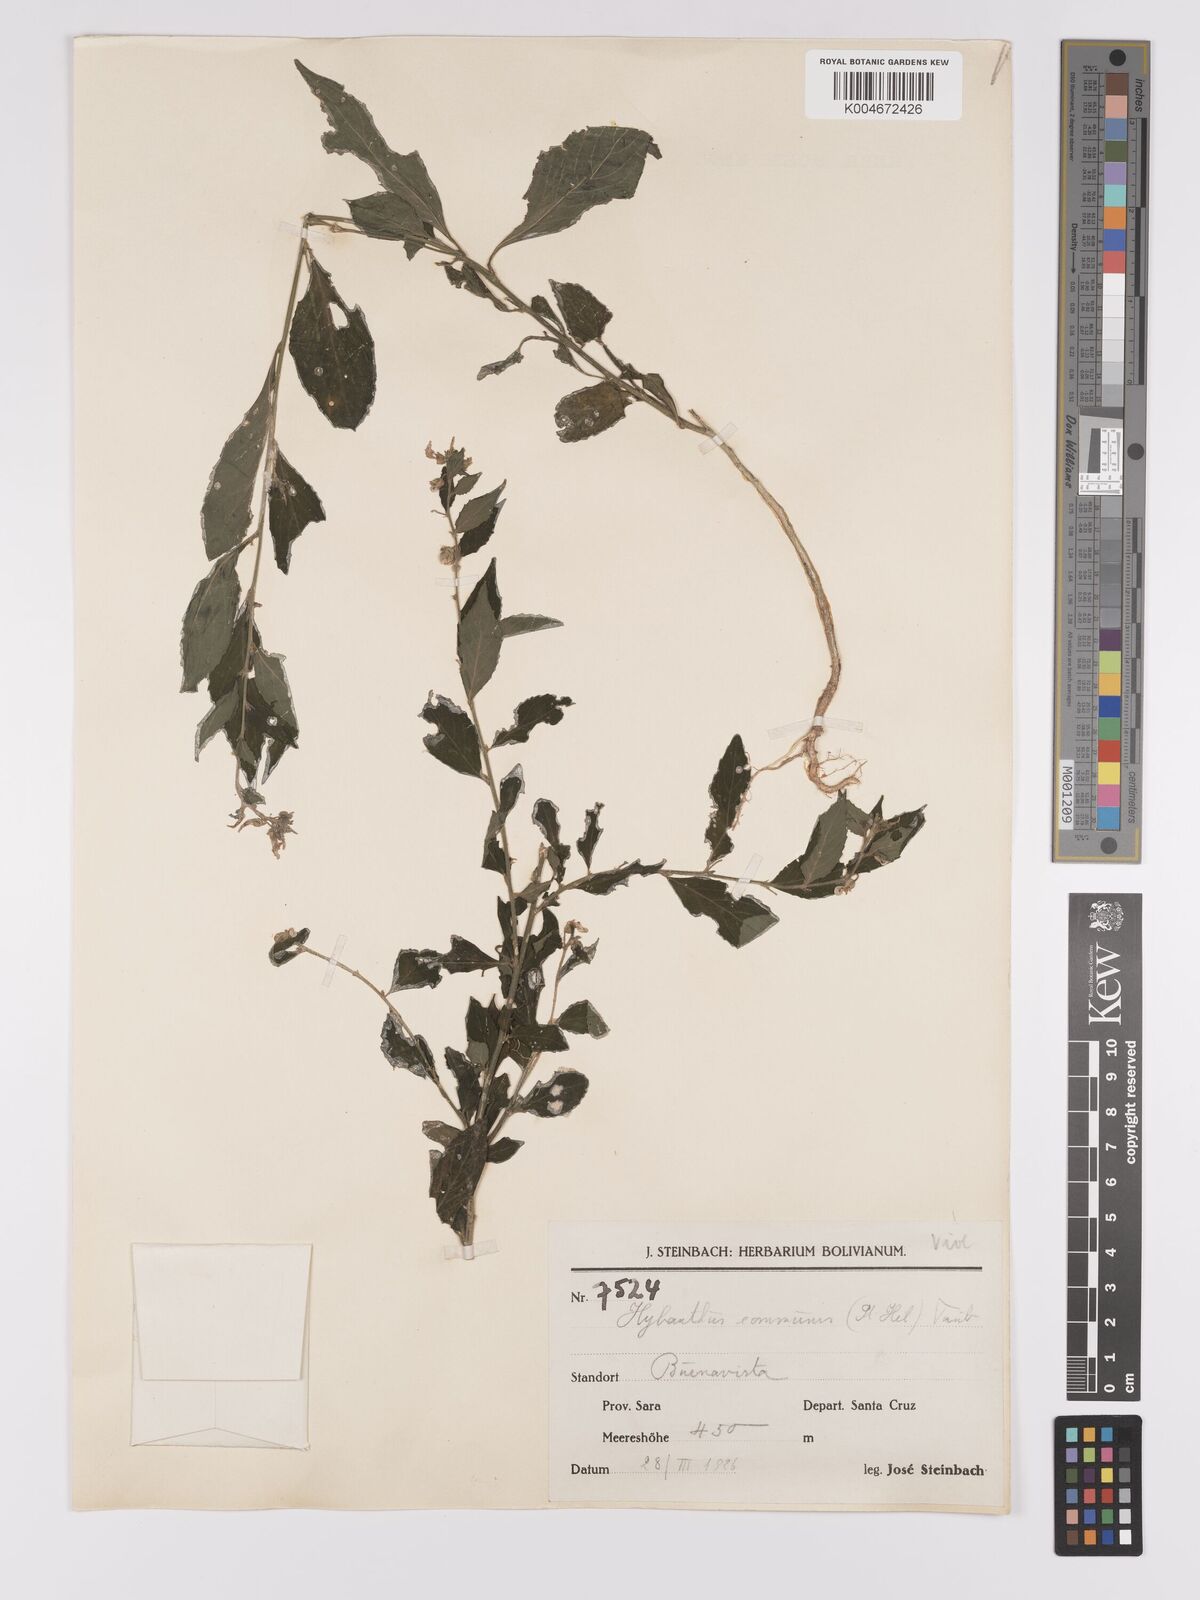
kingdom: Plantae
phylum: Tracheophyta
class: Magnoliopsida
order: Malpighiales
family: Violaceae
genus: Pombalia
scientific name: Pombalia communis
